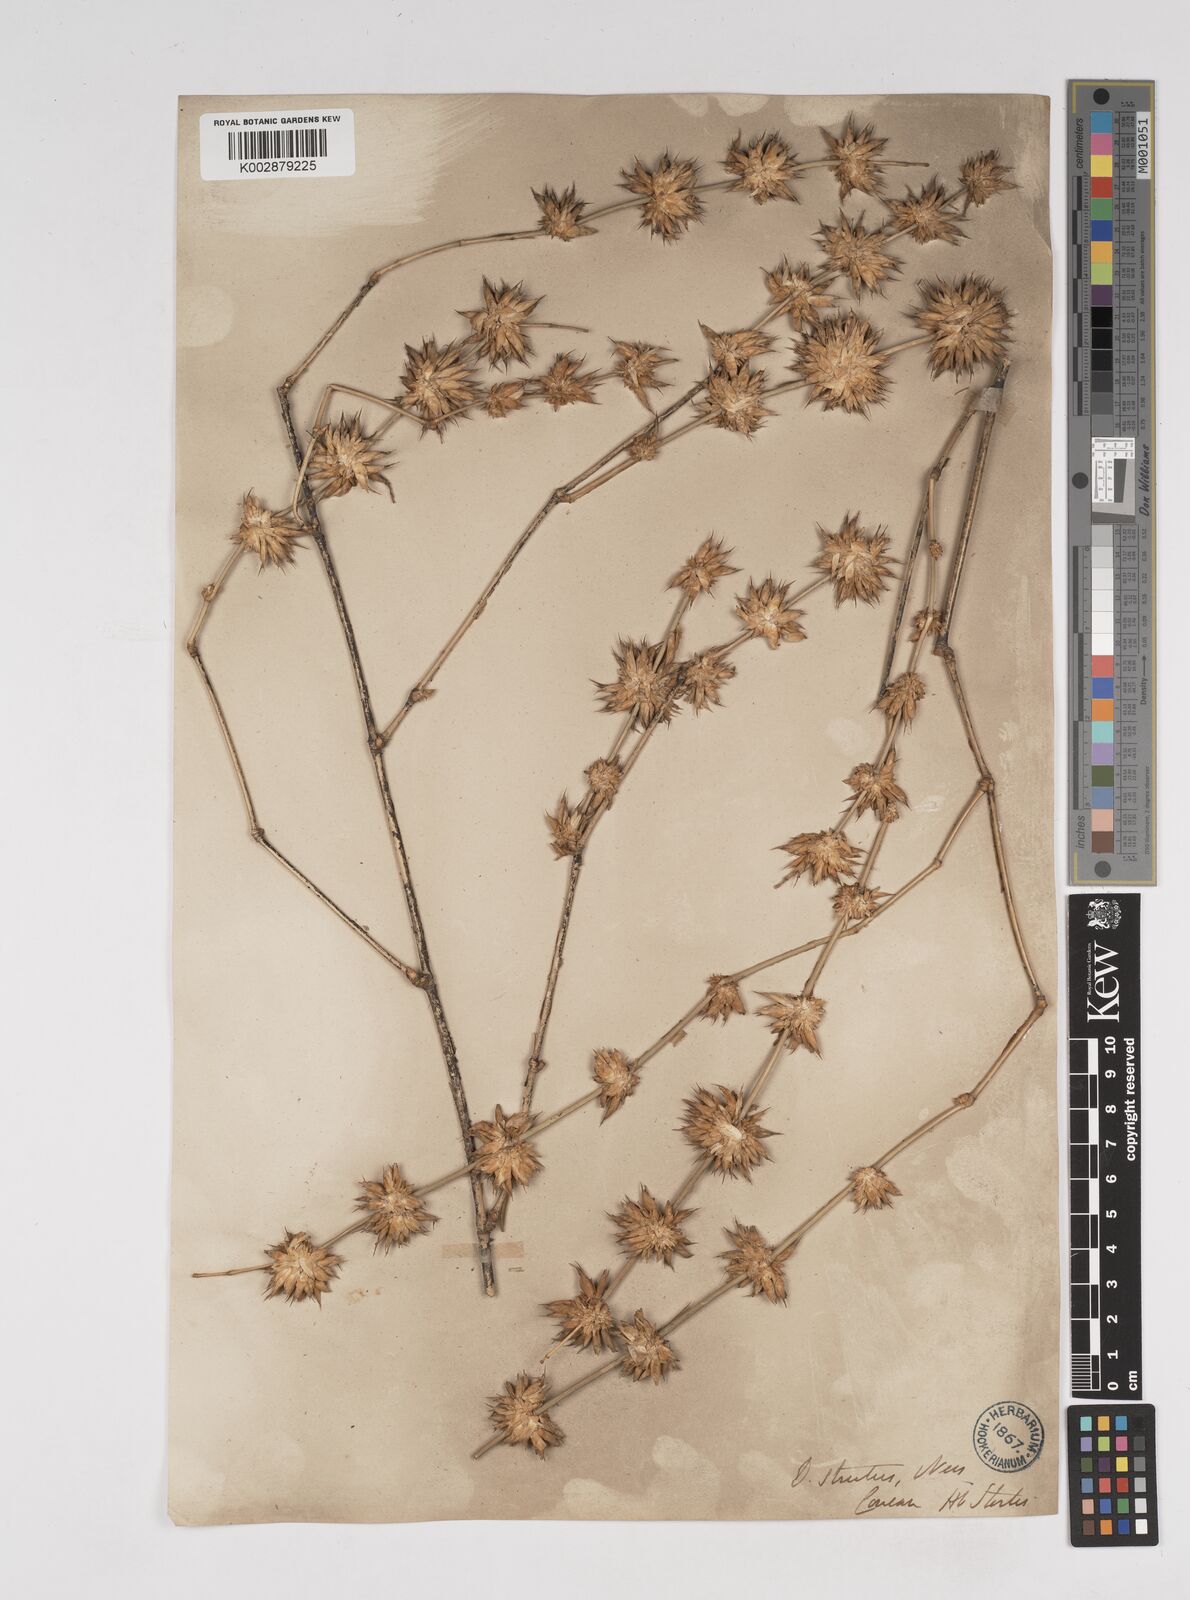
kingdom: Plantae
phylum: Tracheophyta
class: Liliopsida
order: Poales
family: Poaceae
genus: Dendrocalamus
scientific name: Dendrocalamus strictus
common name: Male bamboo
